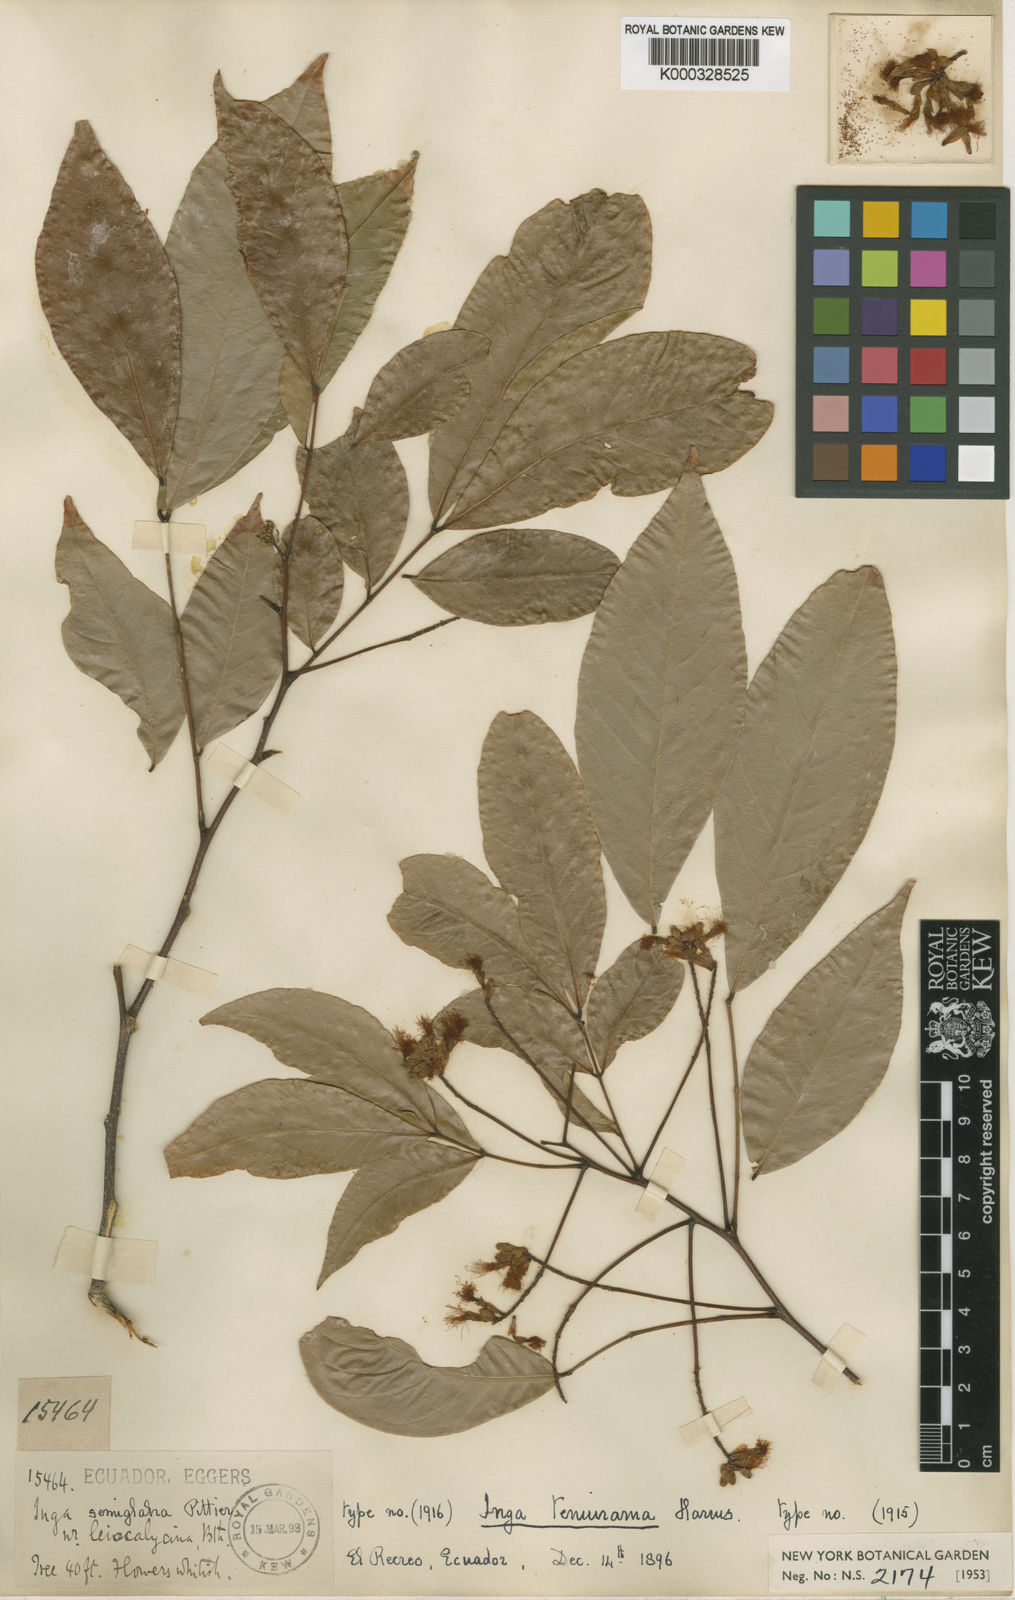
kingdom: Plantae
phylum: Tracheophyta
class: Magnoliopsida
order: Fabales
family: Fabaceae
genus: Inga
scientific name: Inga laevigata
